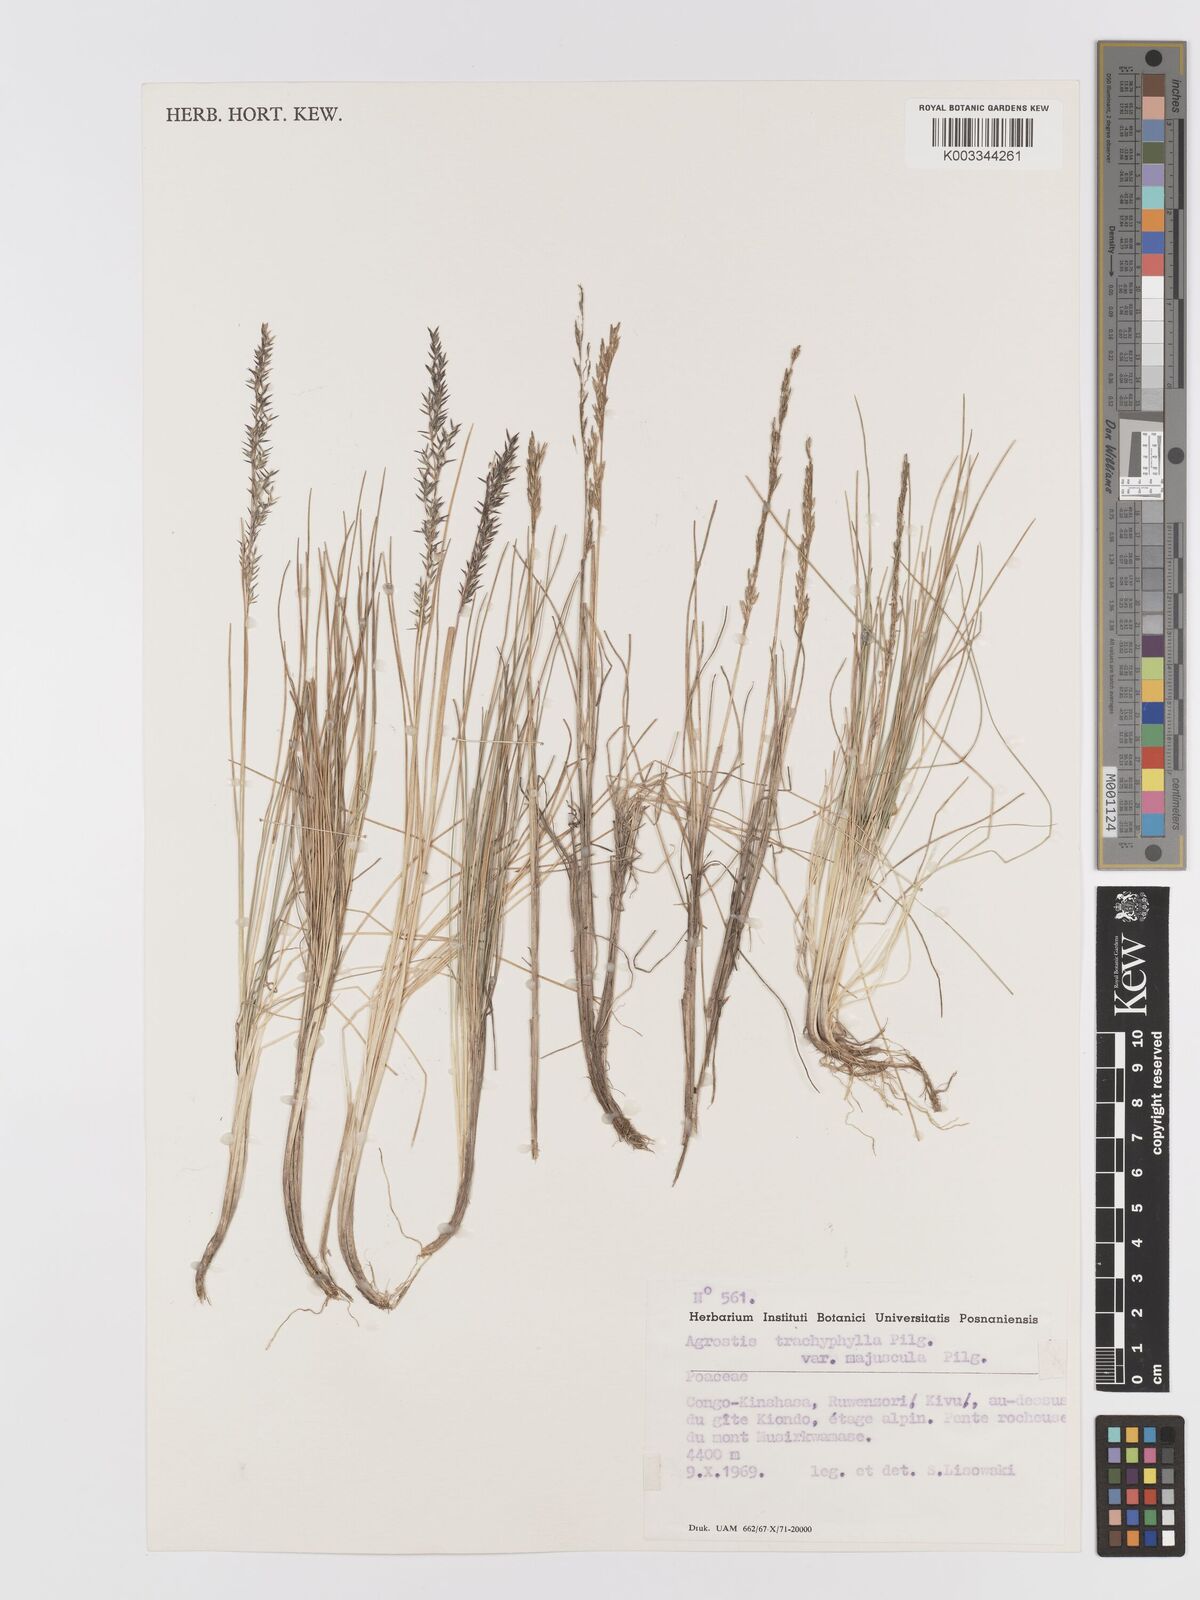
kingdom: Plantae
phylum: Tracheophyta
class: Liliopsida
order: Poales
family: Poaceae
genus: Agrostis
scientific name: Agrostis trachyphylla
